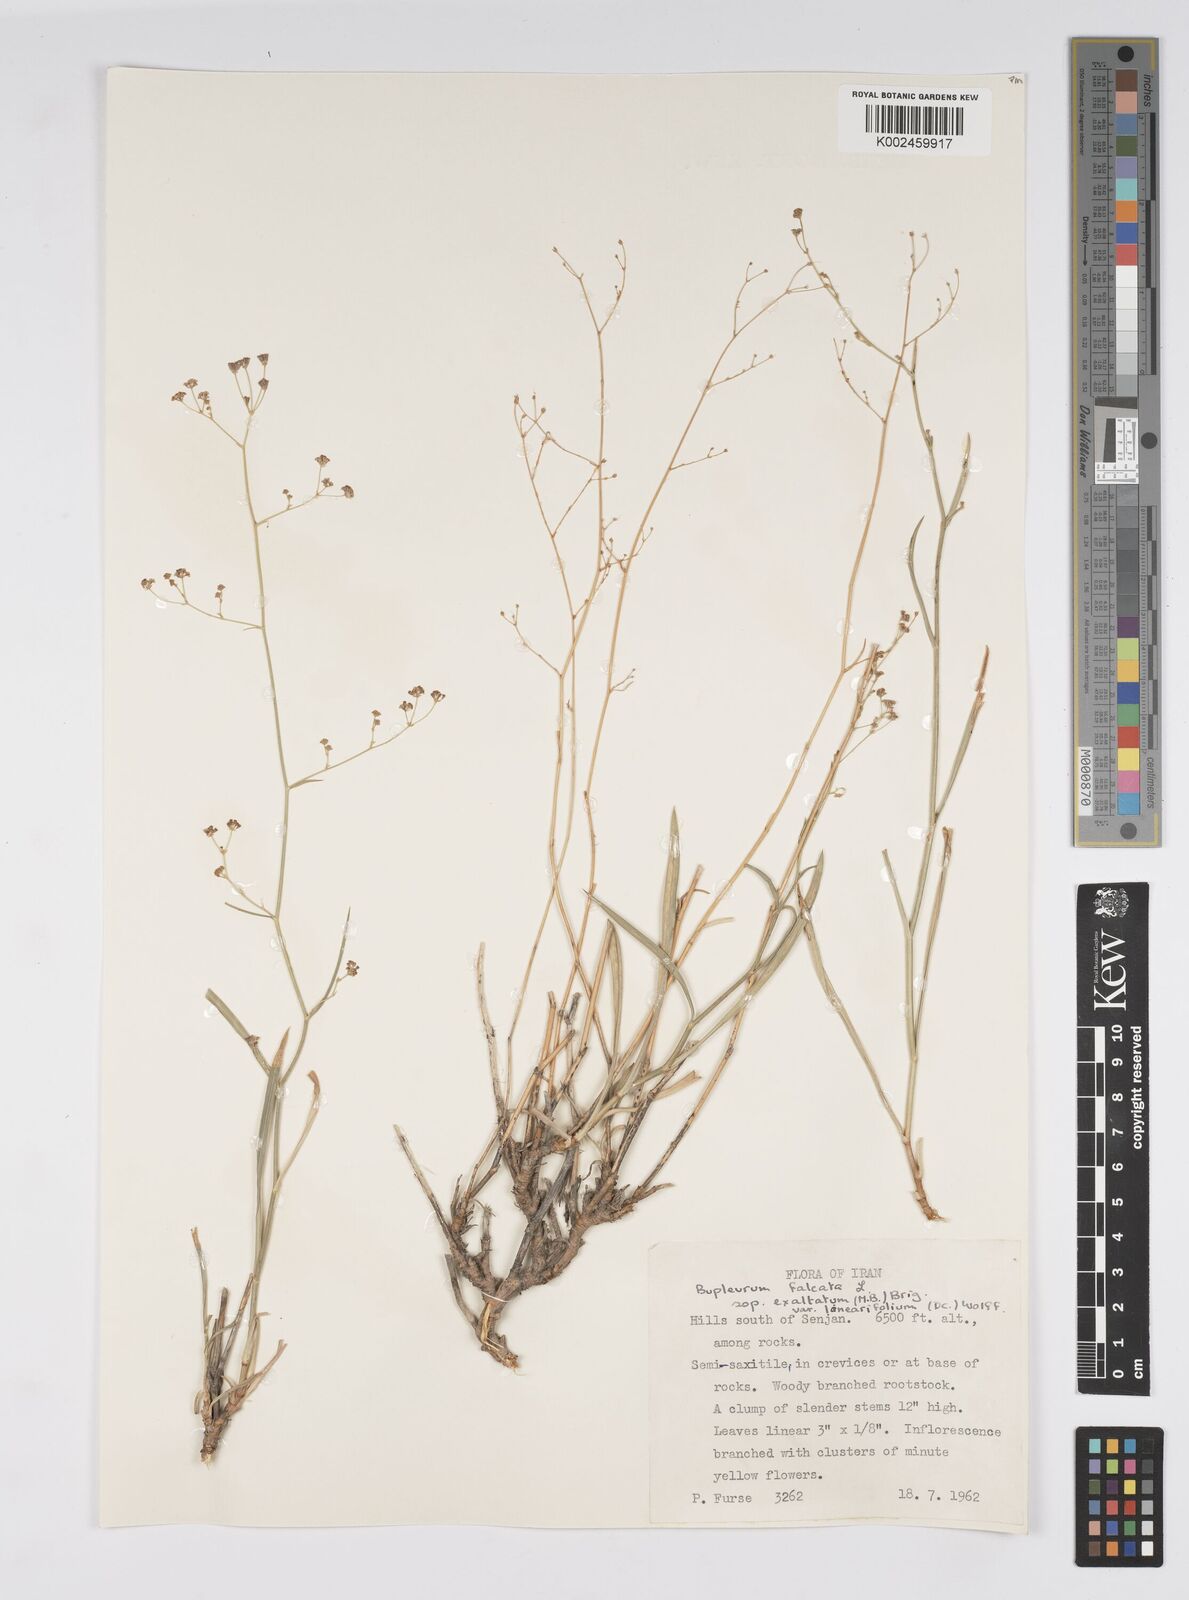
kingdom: Plantae
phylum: Tracheophyta
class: Magnoliopsida
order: Apiales
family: Apiaceae
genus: Bupleurum
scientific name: Bupleurum falcatum
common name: Sickle-leaved hare's-ear
